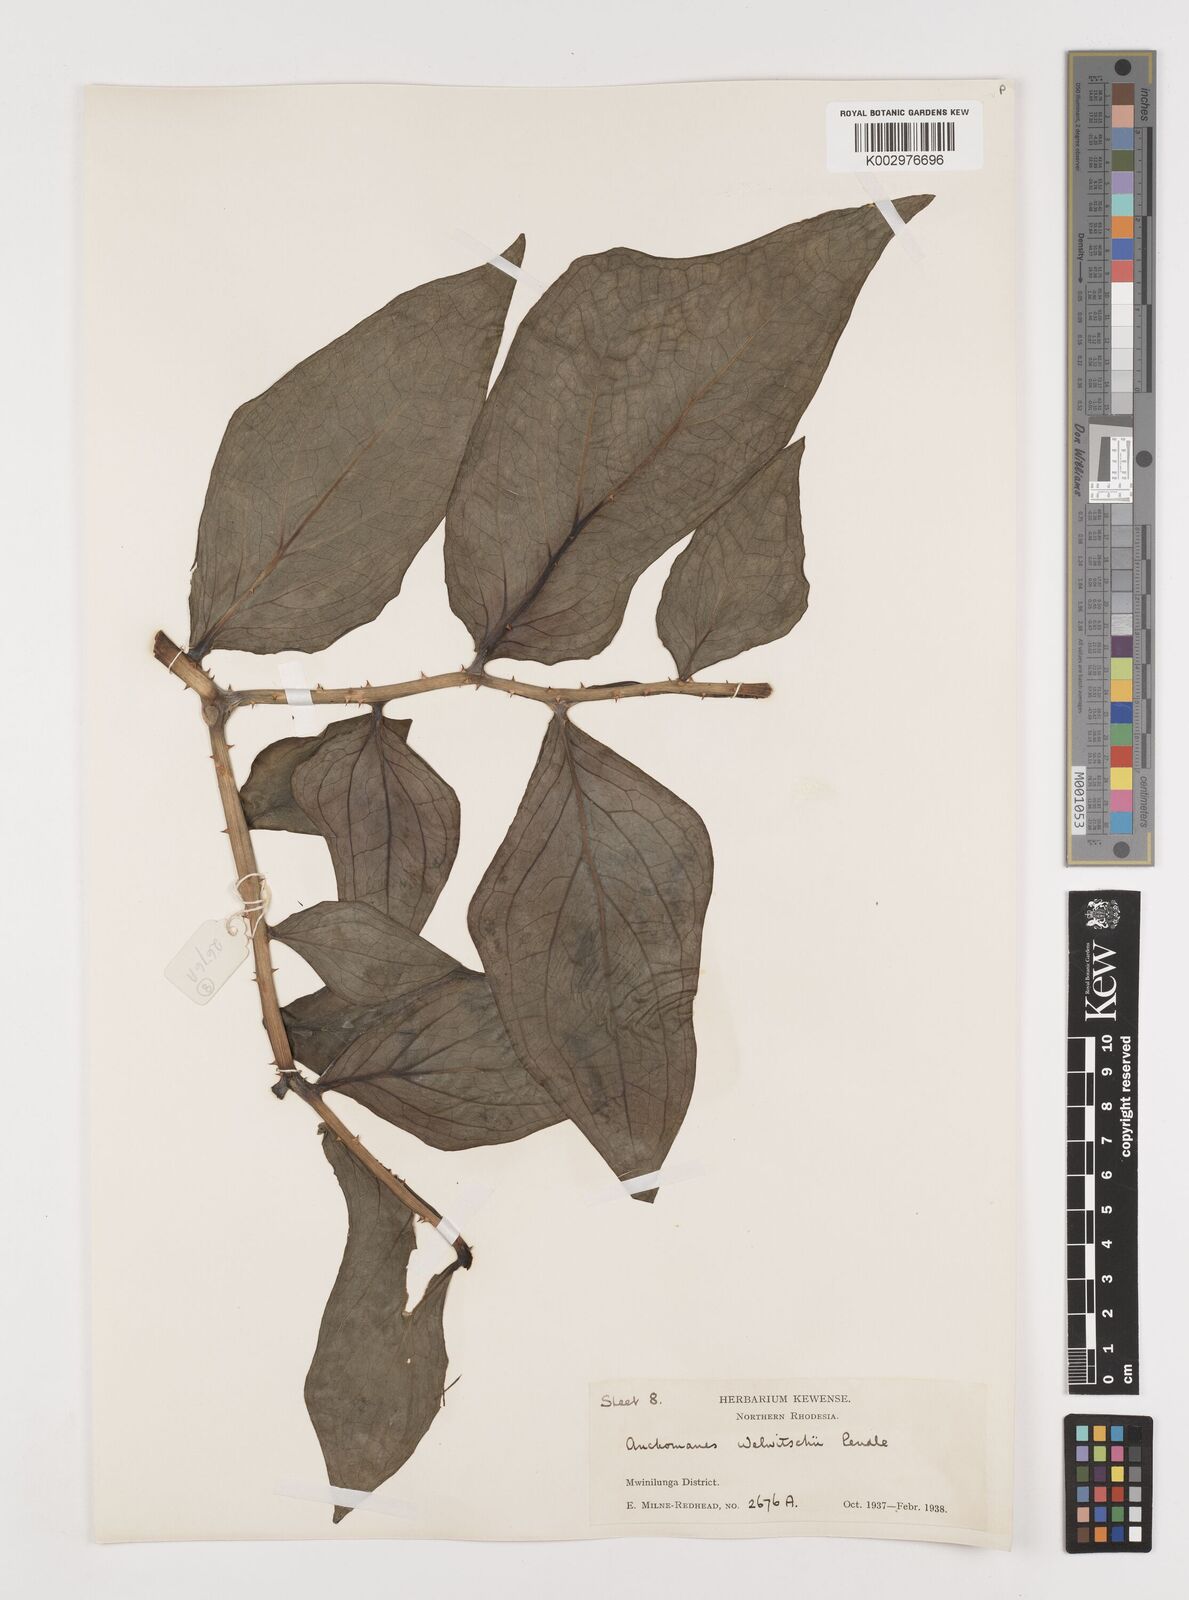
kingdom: Plantae
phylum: Tracheophyta
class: Liliopsida
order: Alismatales
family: Araceae
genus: Anchomanes
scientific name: Anchomanes difformis
